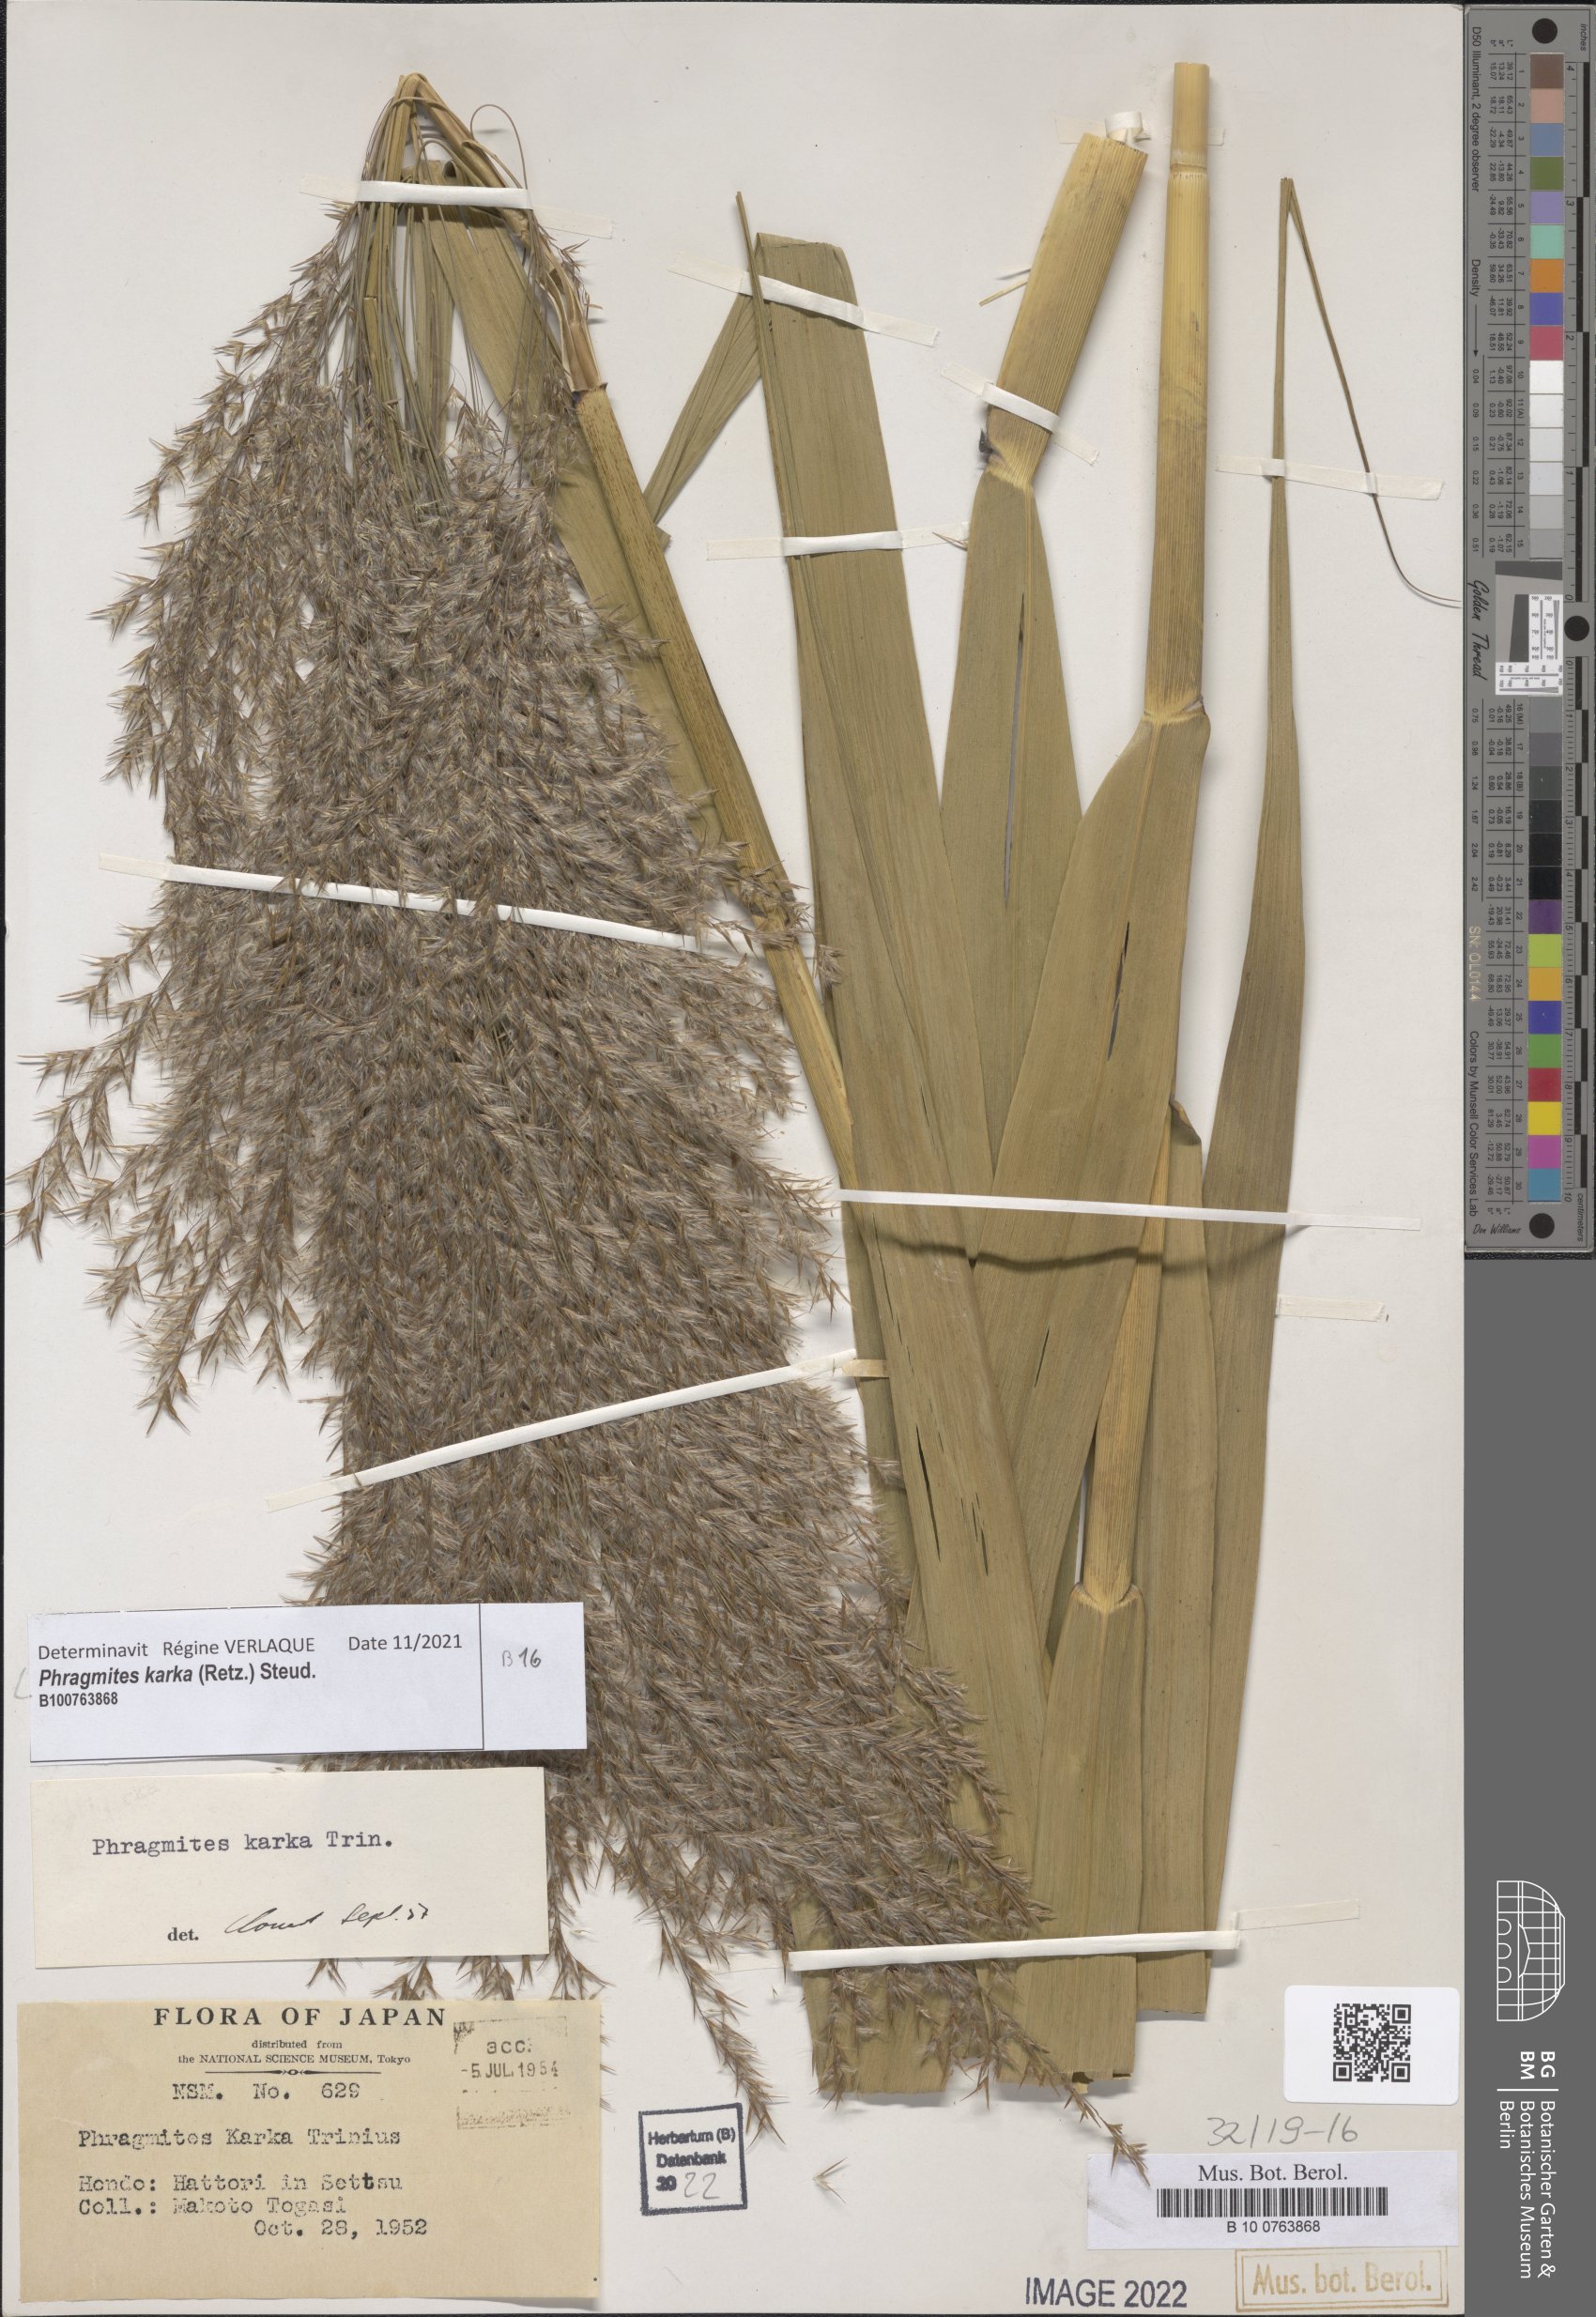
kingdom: Plantae
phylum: Tracheophyta
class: Liliopsida
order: Poales
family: Poaceae
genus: Phragmites
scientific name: Phragmites karka
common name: Tropical reed
